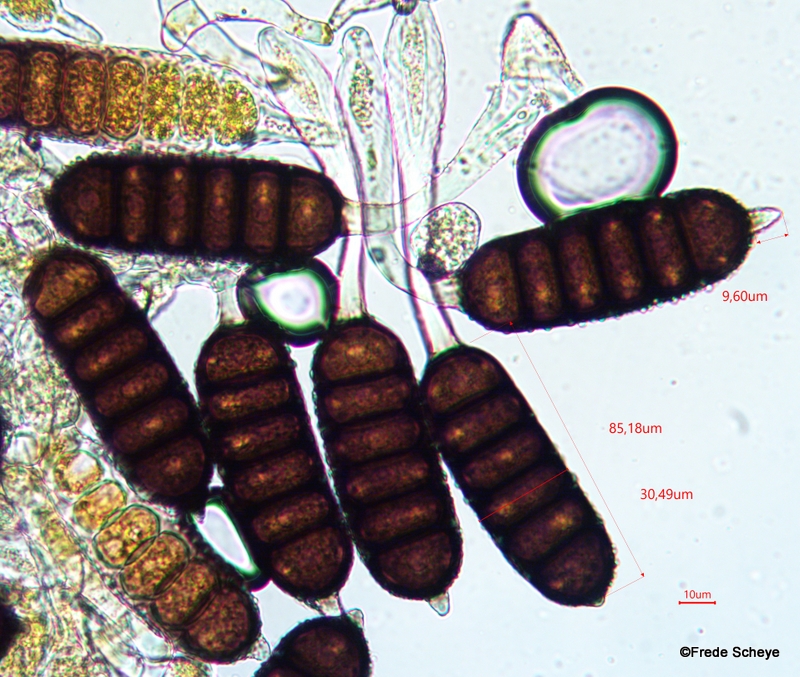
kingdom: Fungi
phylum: Basidiomycota
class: Pucciniomycetes
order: Pucciniales
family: Phragmidiaceae
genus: Phragmidium
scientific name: Phragmidium bulbosum
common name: brombær-flercellerust
